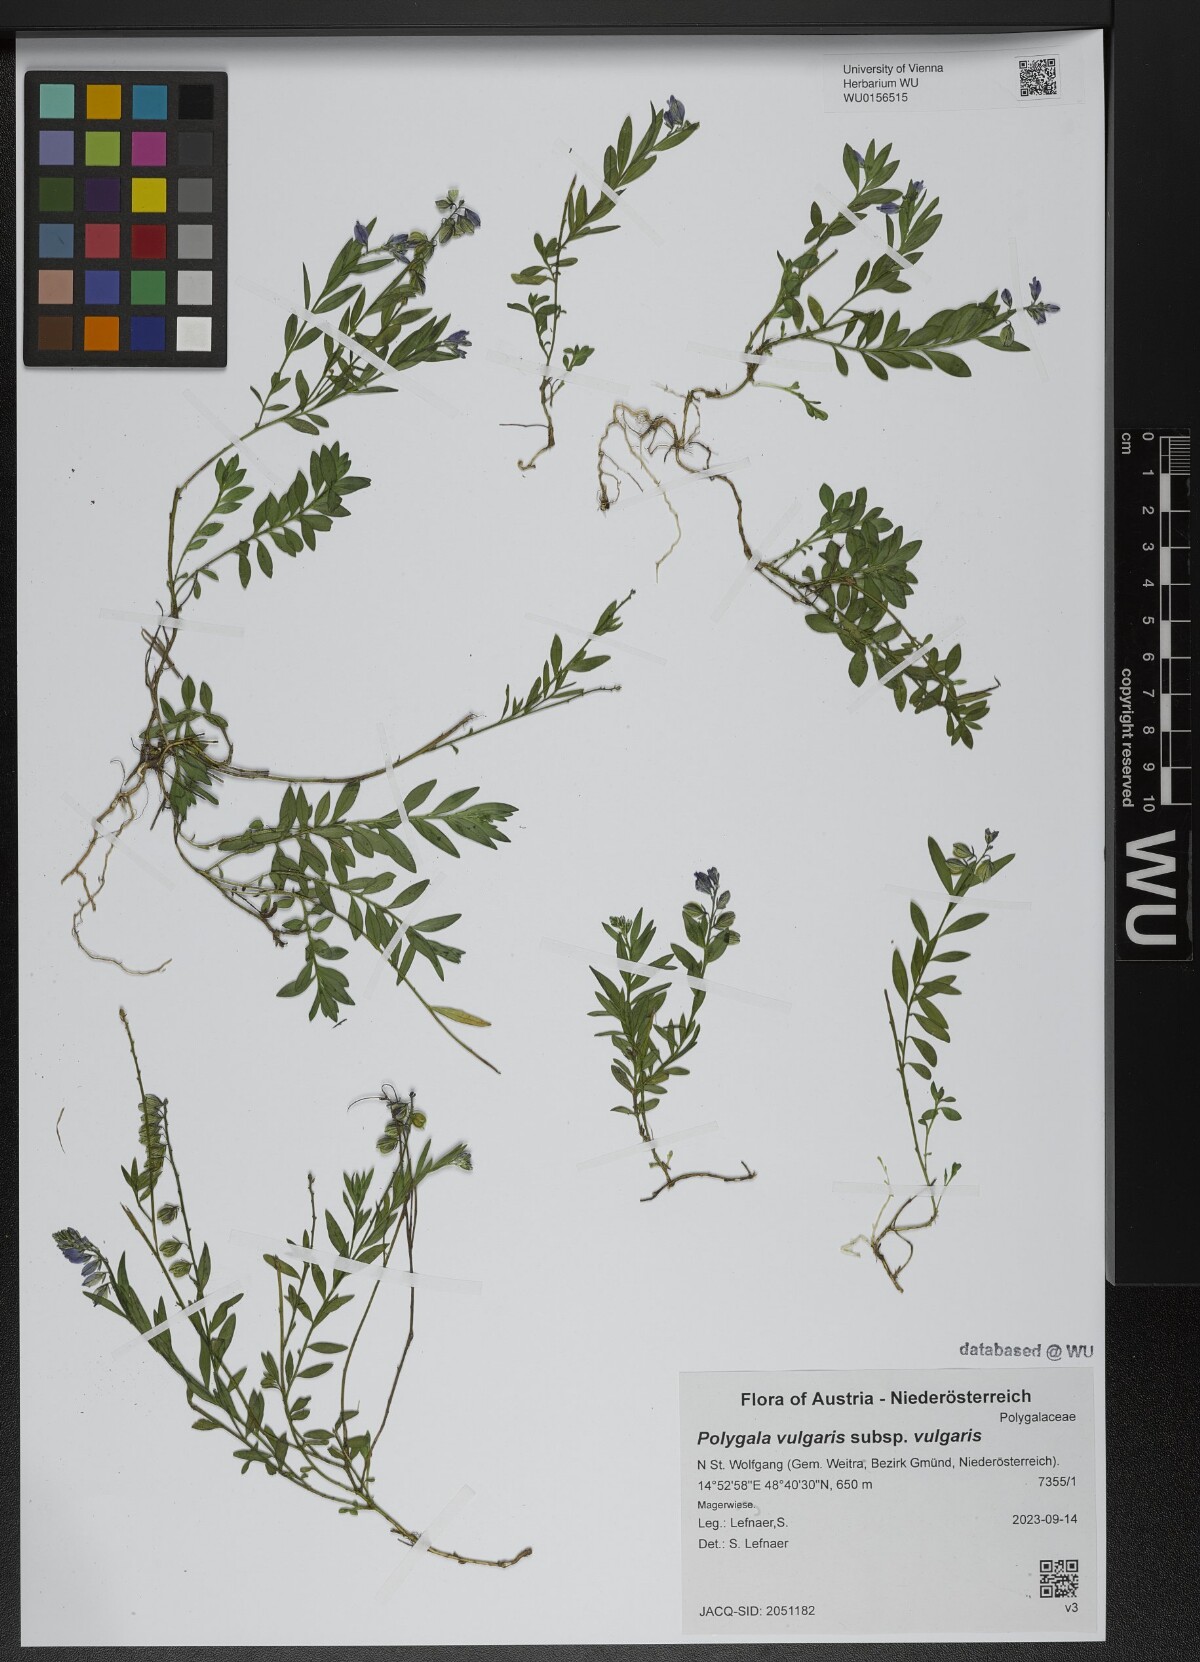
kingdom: Plantae
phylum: Tracheophyta
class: Magnoliopsida
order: Fabales
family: Polygalaceae
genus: Polygala
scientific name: Polygala vulgaris
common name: Common milkwort
